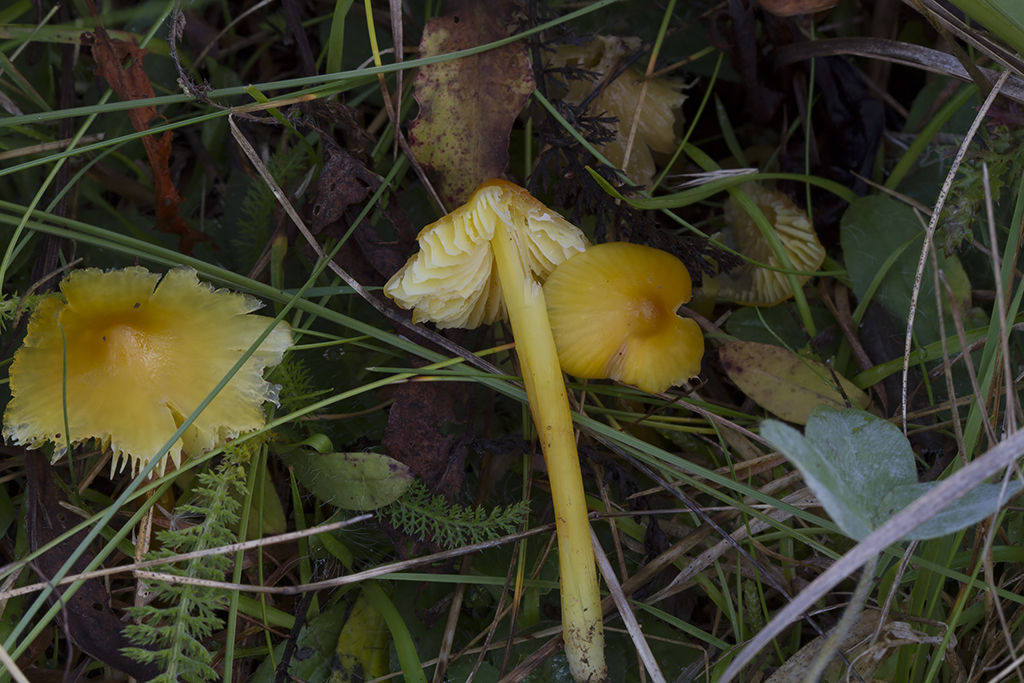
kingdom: Fungi
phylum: Basidiomycota
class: Agaricomycetes
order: Agaricales
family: Hygrophoraceae
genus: Hygrocybe
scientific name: Hygrocybe acutoconica
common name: spidspuklet vokshat
